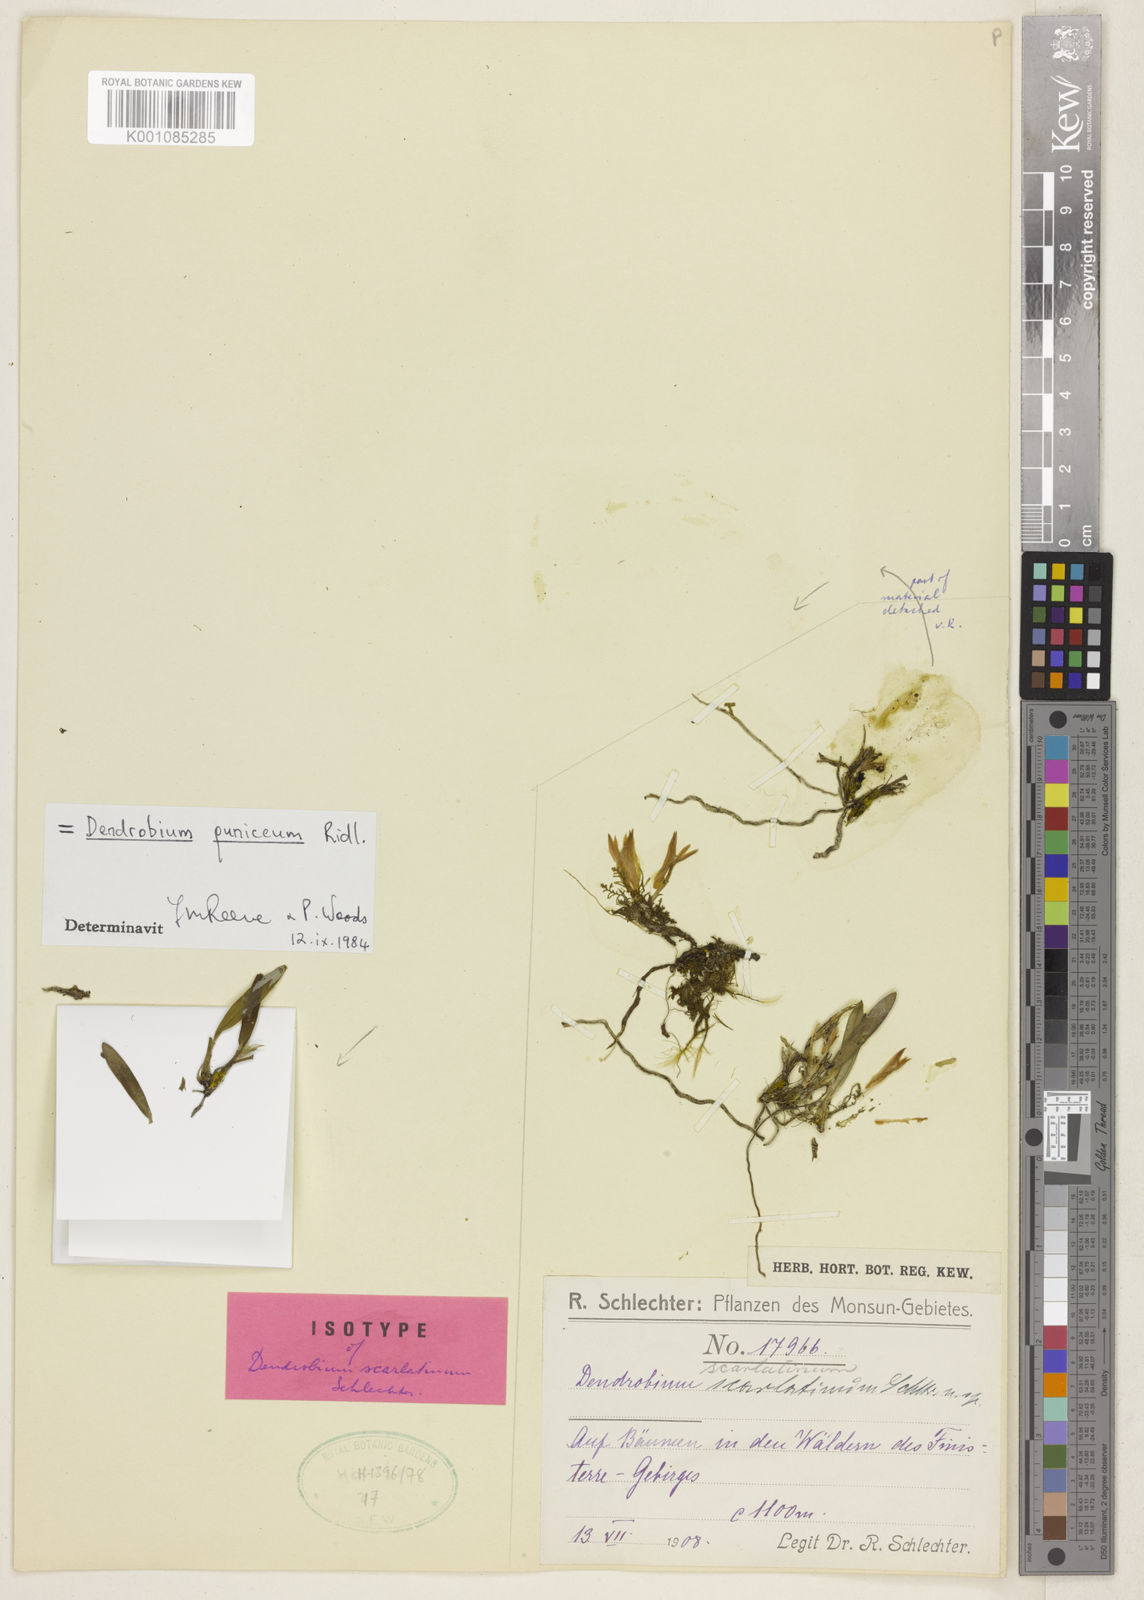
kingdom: Plantae
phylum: Tracheophyta
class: Liliopsida
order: Asparagales
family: Orchidaceae
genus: Dendrobium
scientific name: Dendrobium puniceum
